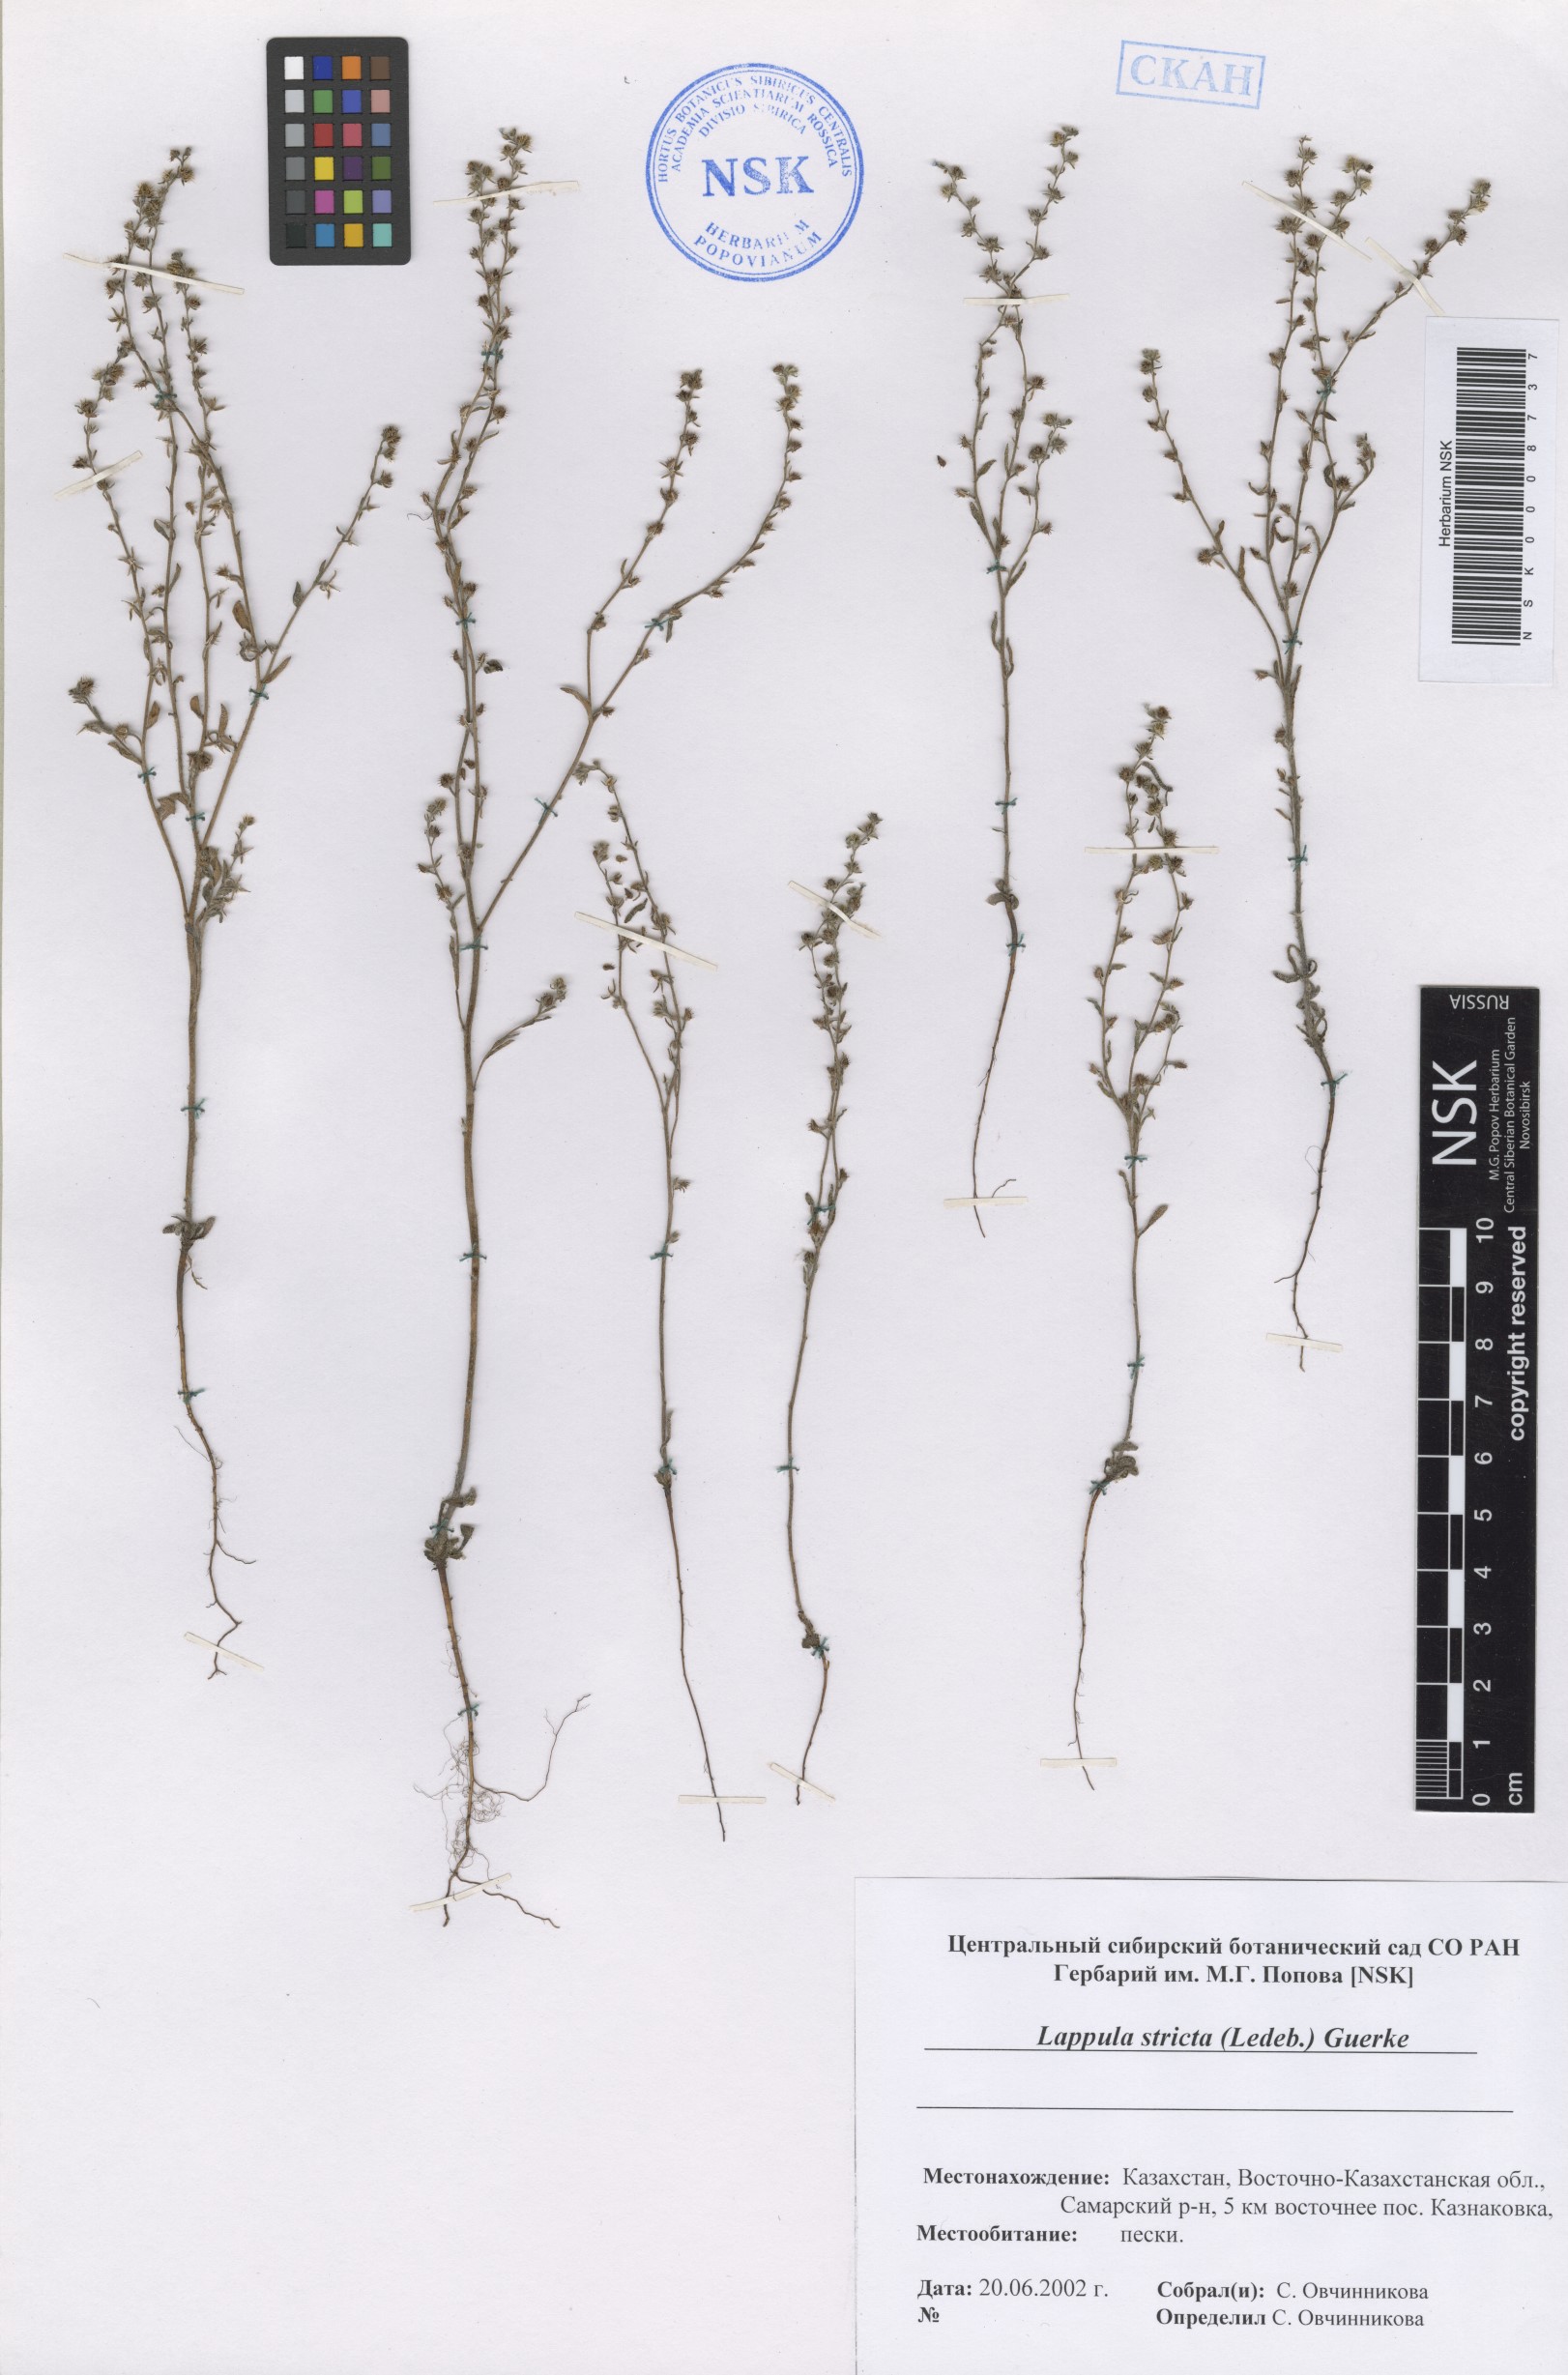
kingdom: Plantae
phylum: Tracheophyta
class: Magnoliopsida
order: Boraginales
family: Boraginaceae
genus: Lappula
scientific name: Lappula stricta
